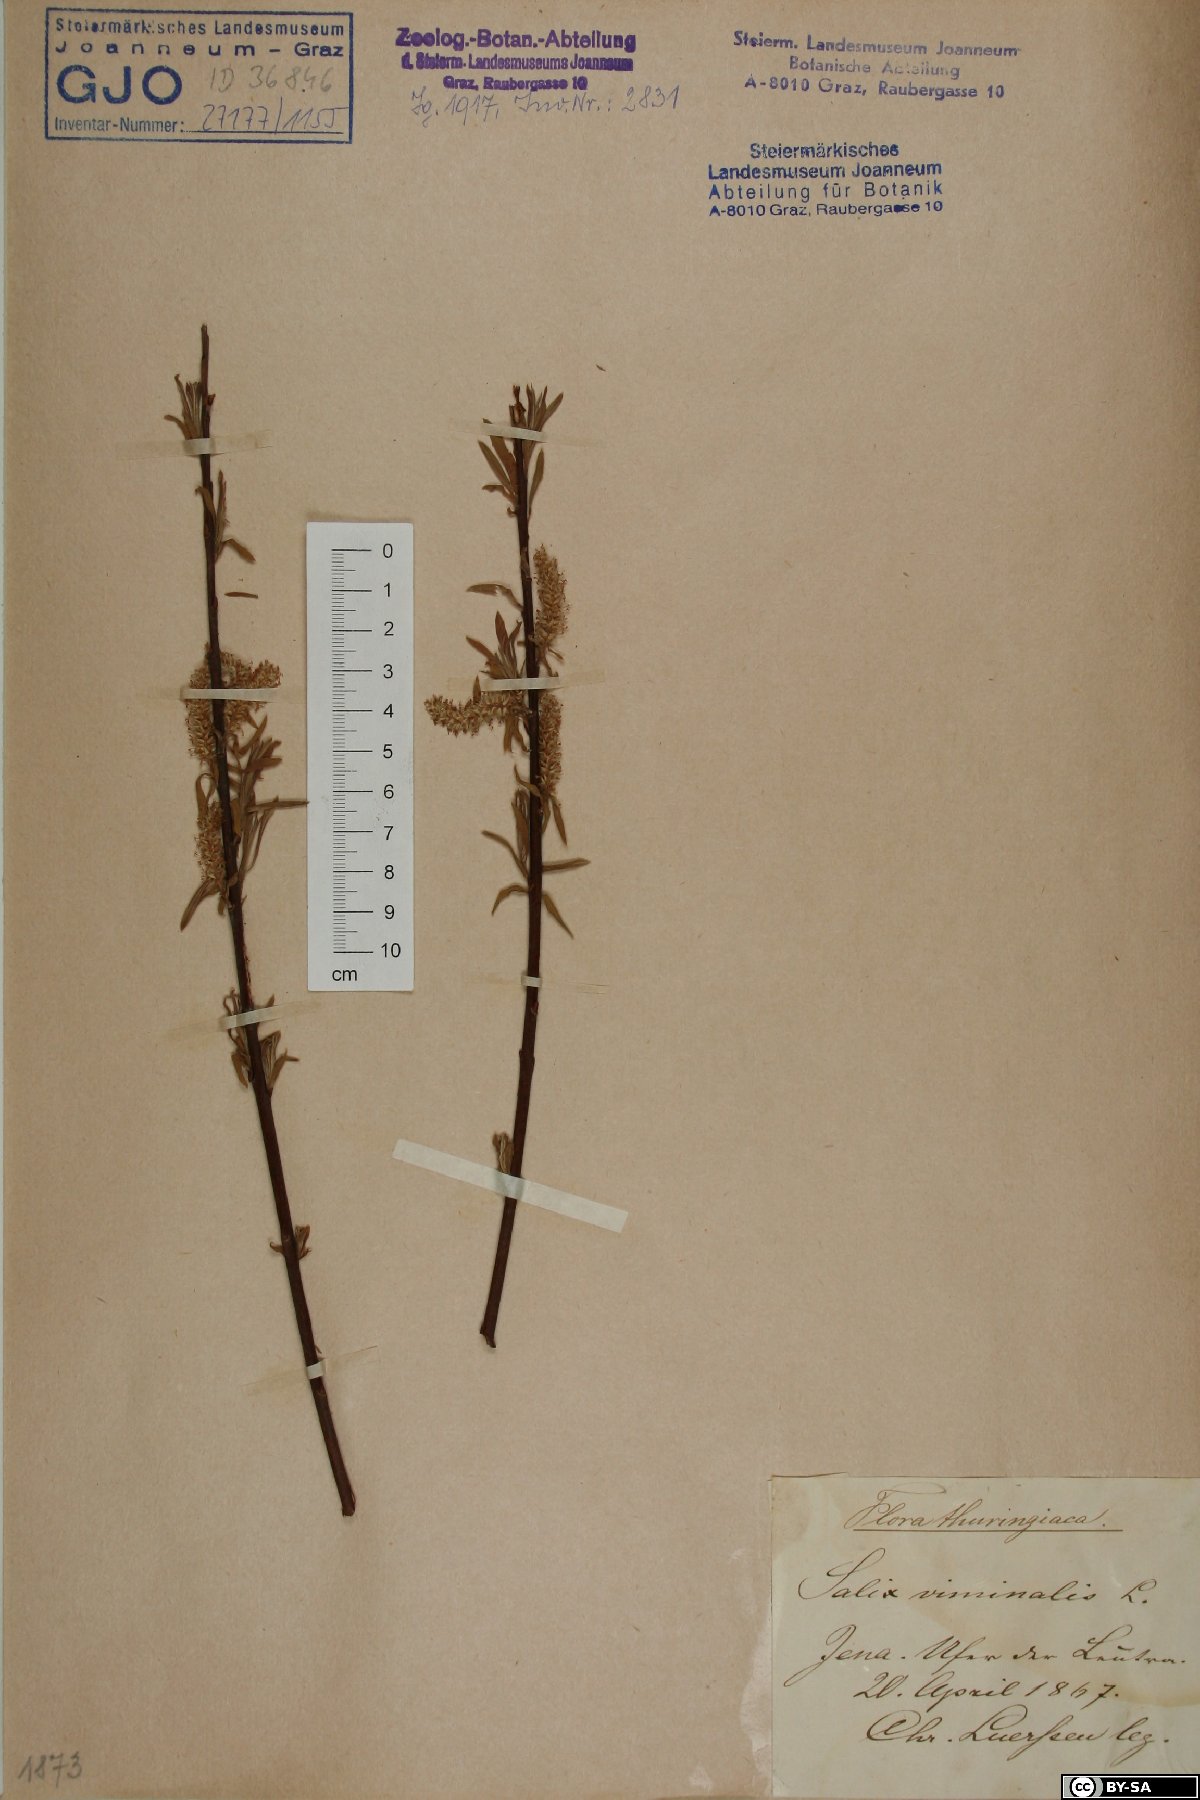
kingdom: Plantae
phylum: Tracheophyta
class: Magnoliopsida
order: Malpighiales
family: Salicaceae
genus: Salix
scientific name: Salix viminalis
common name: Osier
